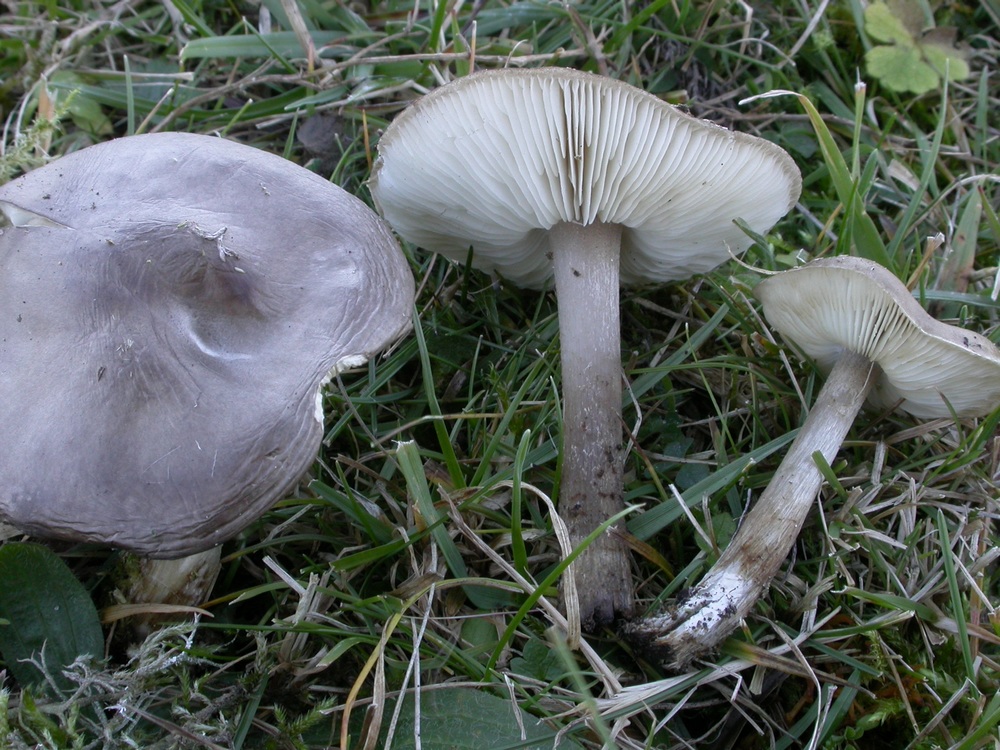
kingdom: Fungi
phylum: Basidiomycota
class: Agaricomycetes
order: Agaricales
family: Tricholomataceae
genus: Melanoleuca
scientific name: Melanoleuca polioleuca
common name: hvidbladet munkehat
